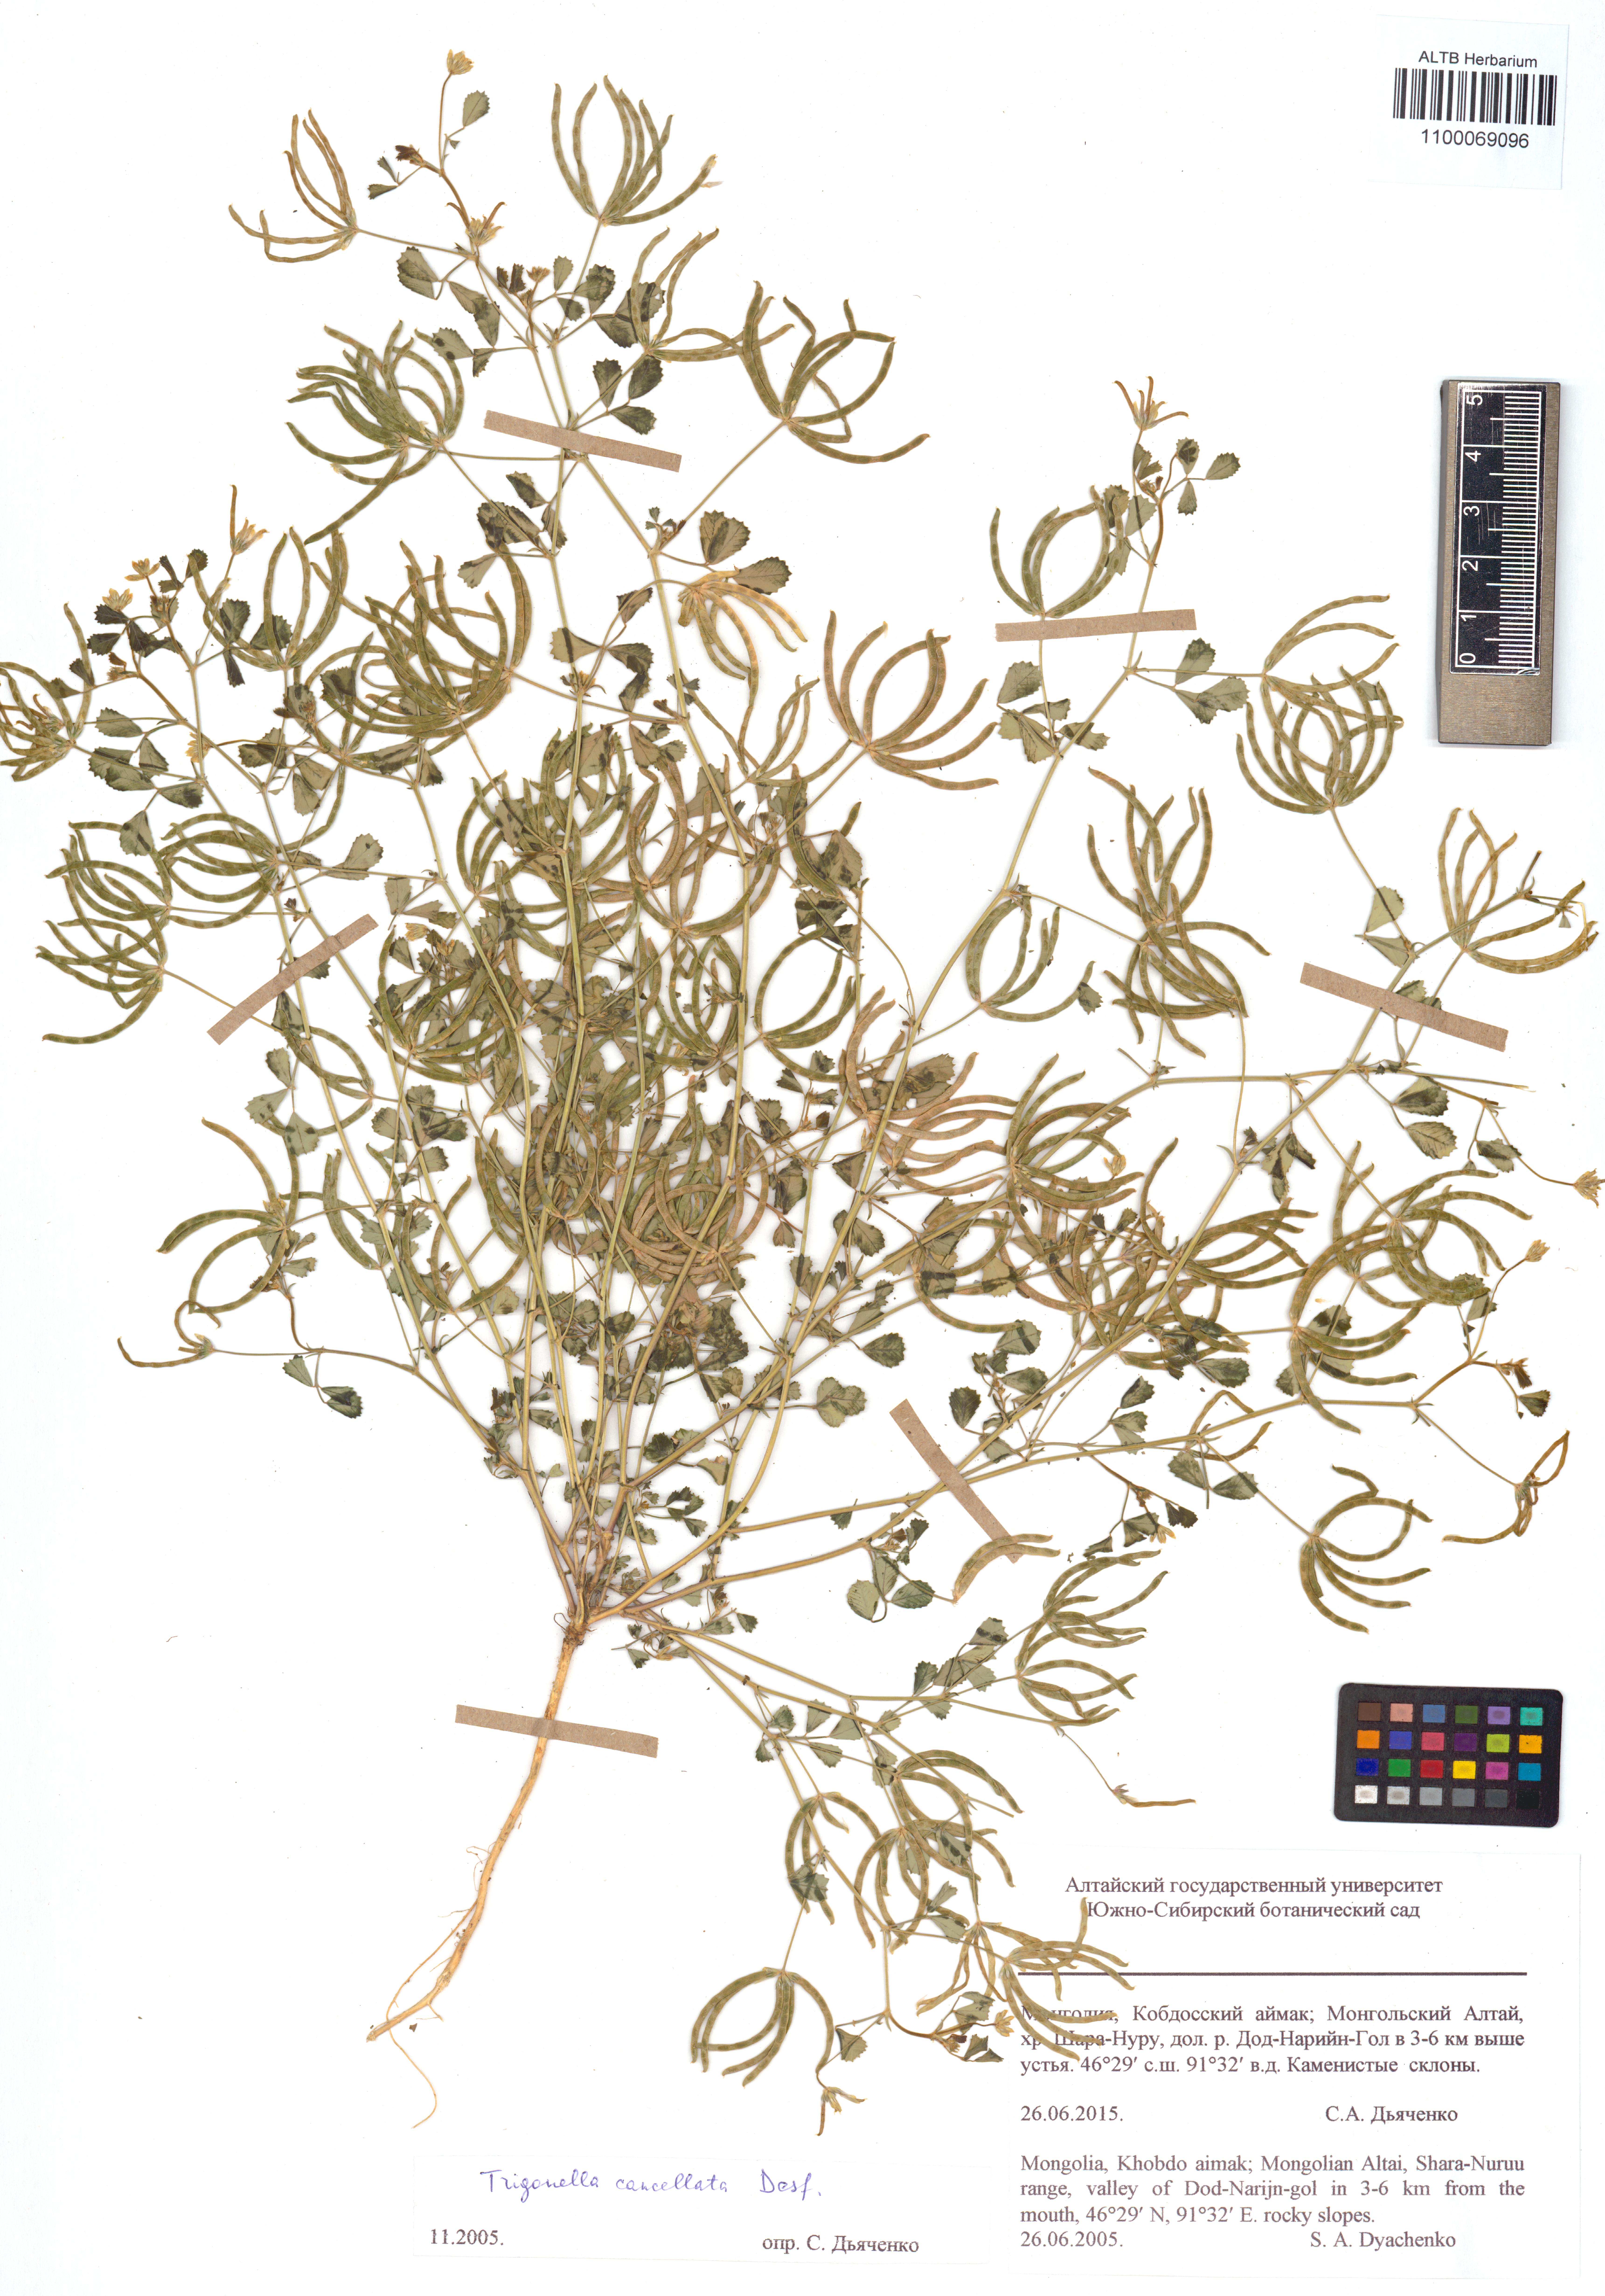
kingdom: Plantae
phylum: Tracheophyta
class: Magnoliopsida
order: Fabales
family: Fabaceae
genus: Trigonella
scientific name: Trigonella cancellata
